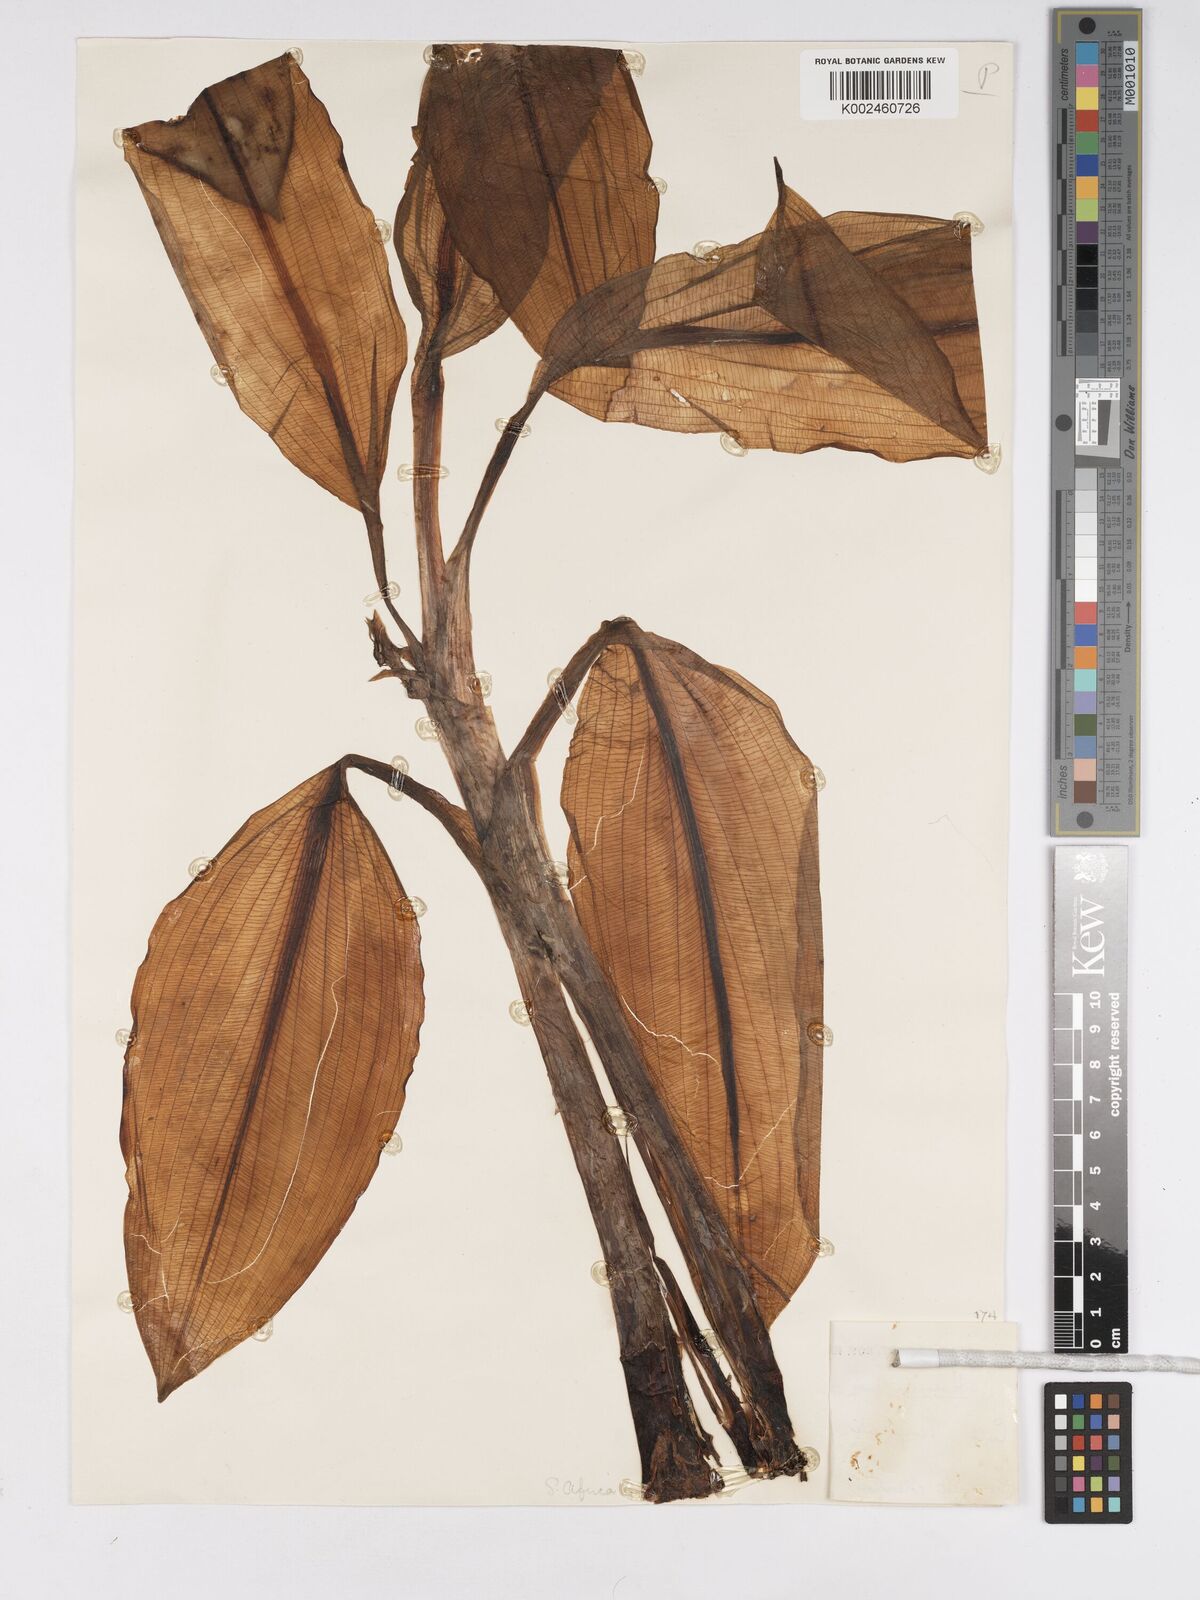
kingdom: Plantae
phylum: Tracheophyta
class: Liliopsida
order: Asparagales
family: Amaryllidaceae
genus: Scadoxus
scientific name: Scadoxus multiflorus
